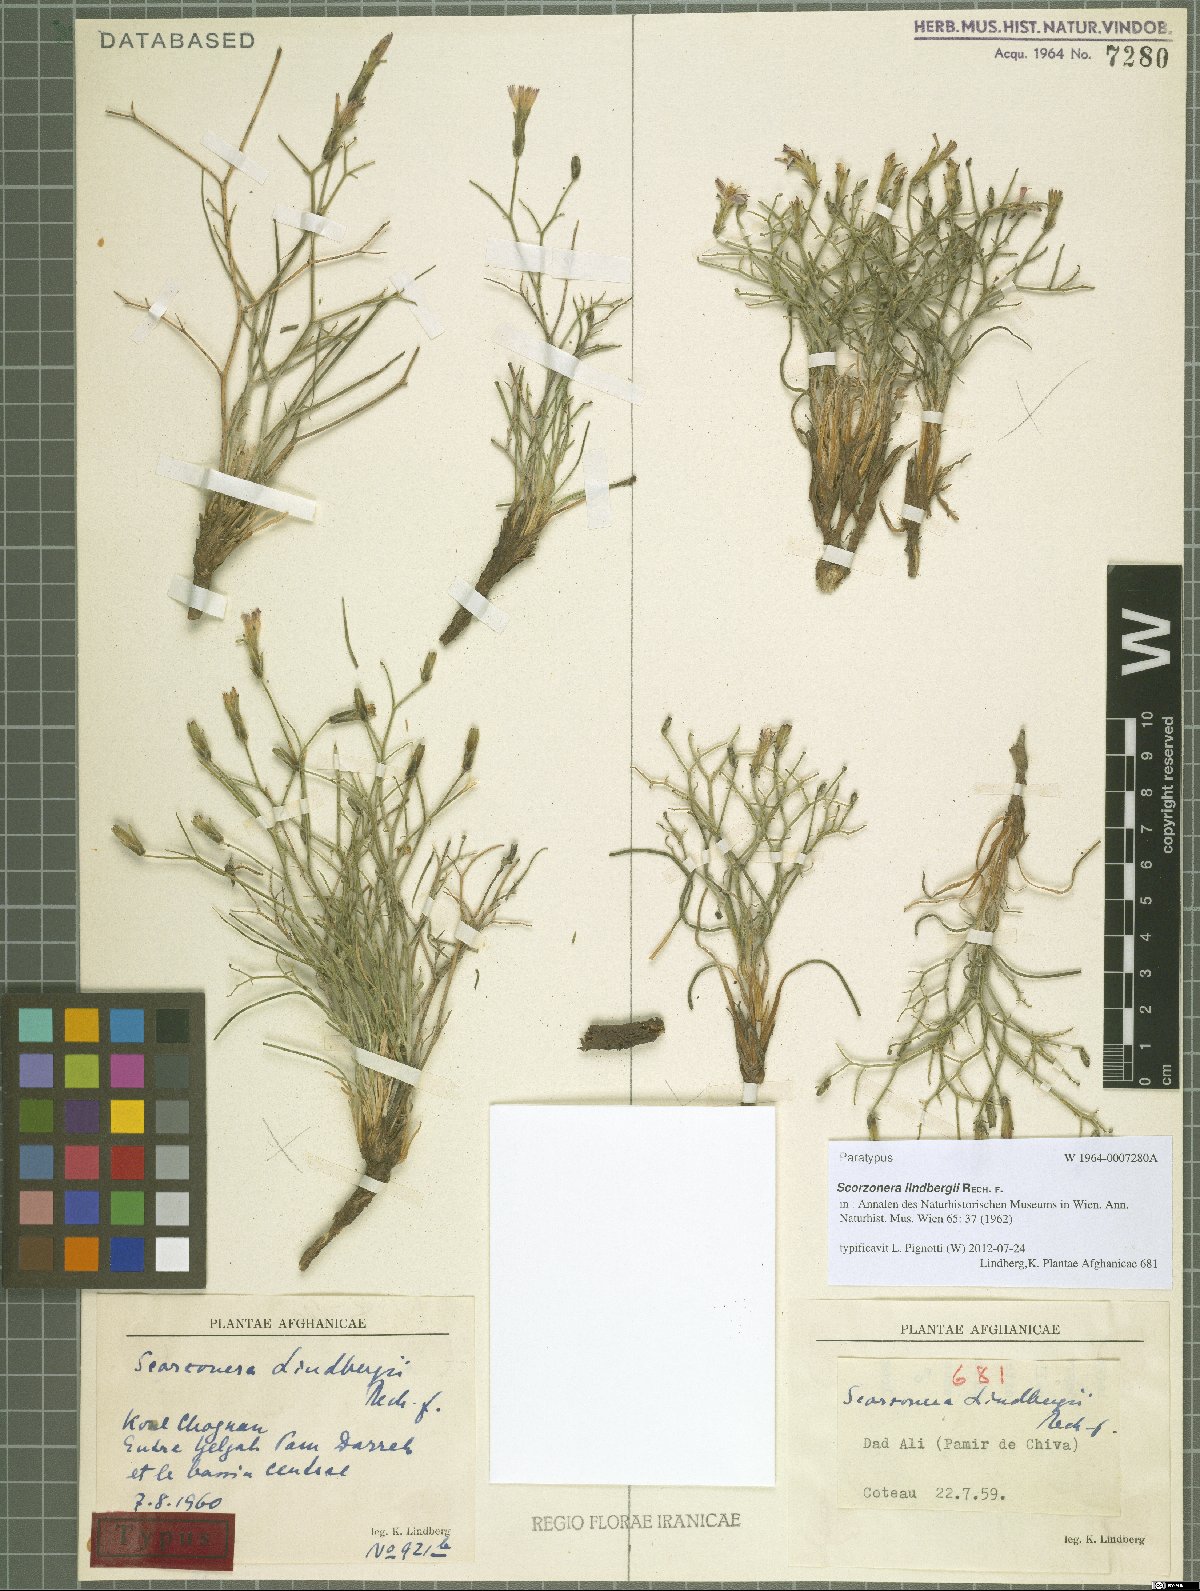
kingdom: Plantae
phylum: Tracheophyta
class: Magnoliopsida
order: Asterales
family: Asteraceae
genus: Scorzonera
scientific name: Scorzonera lindbergii
